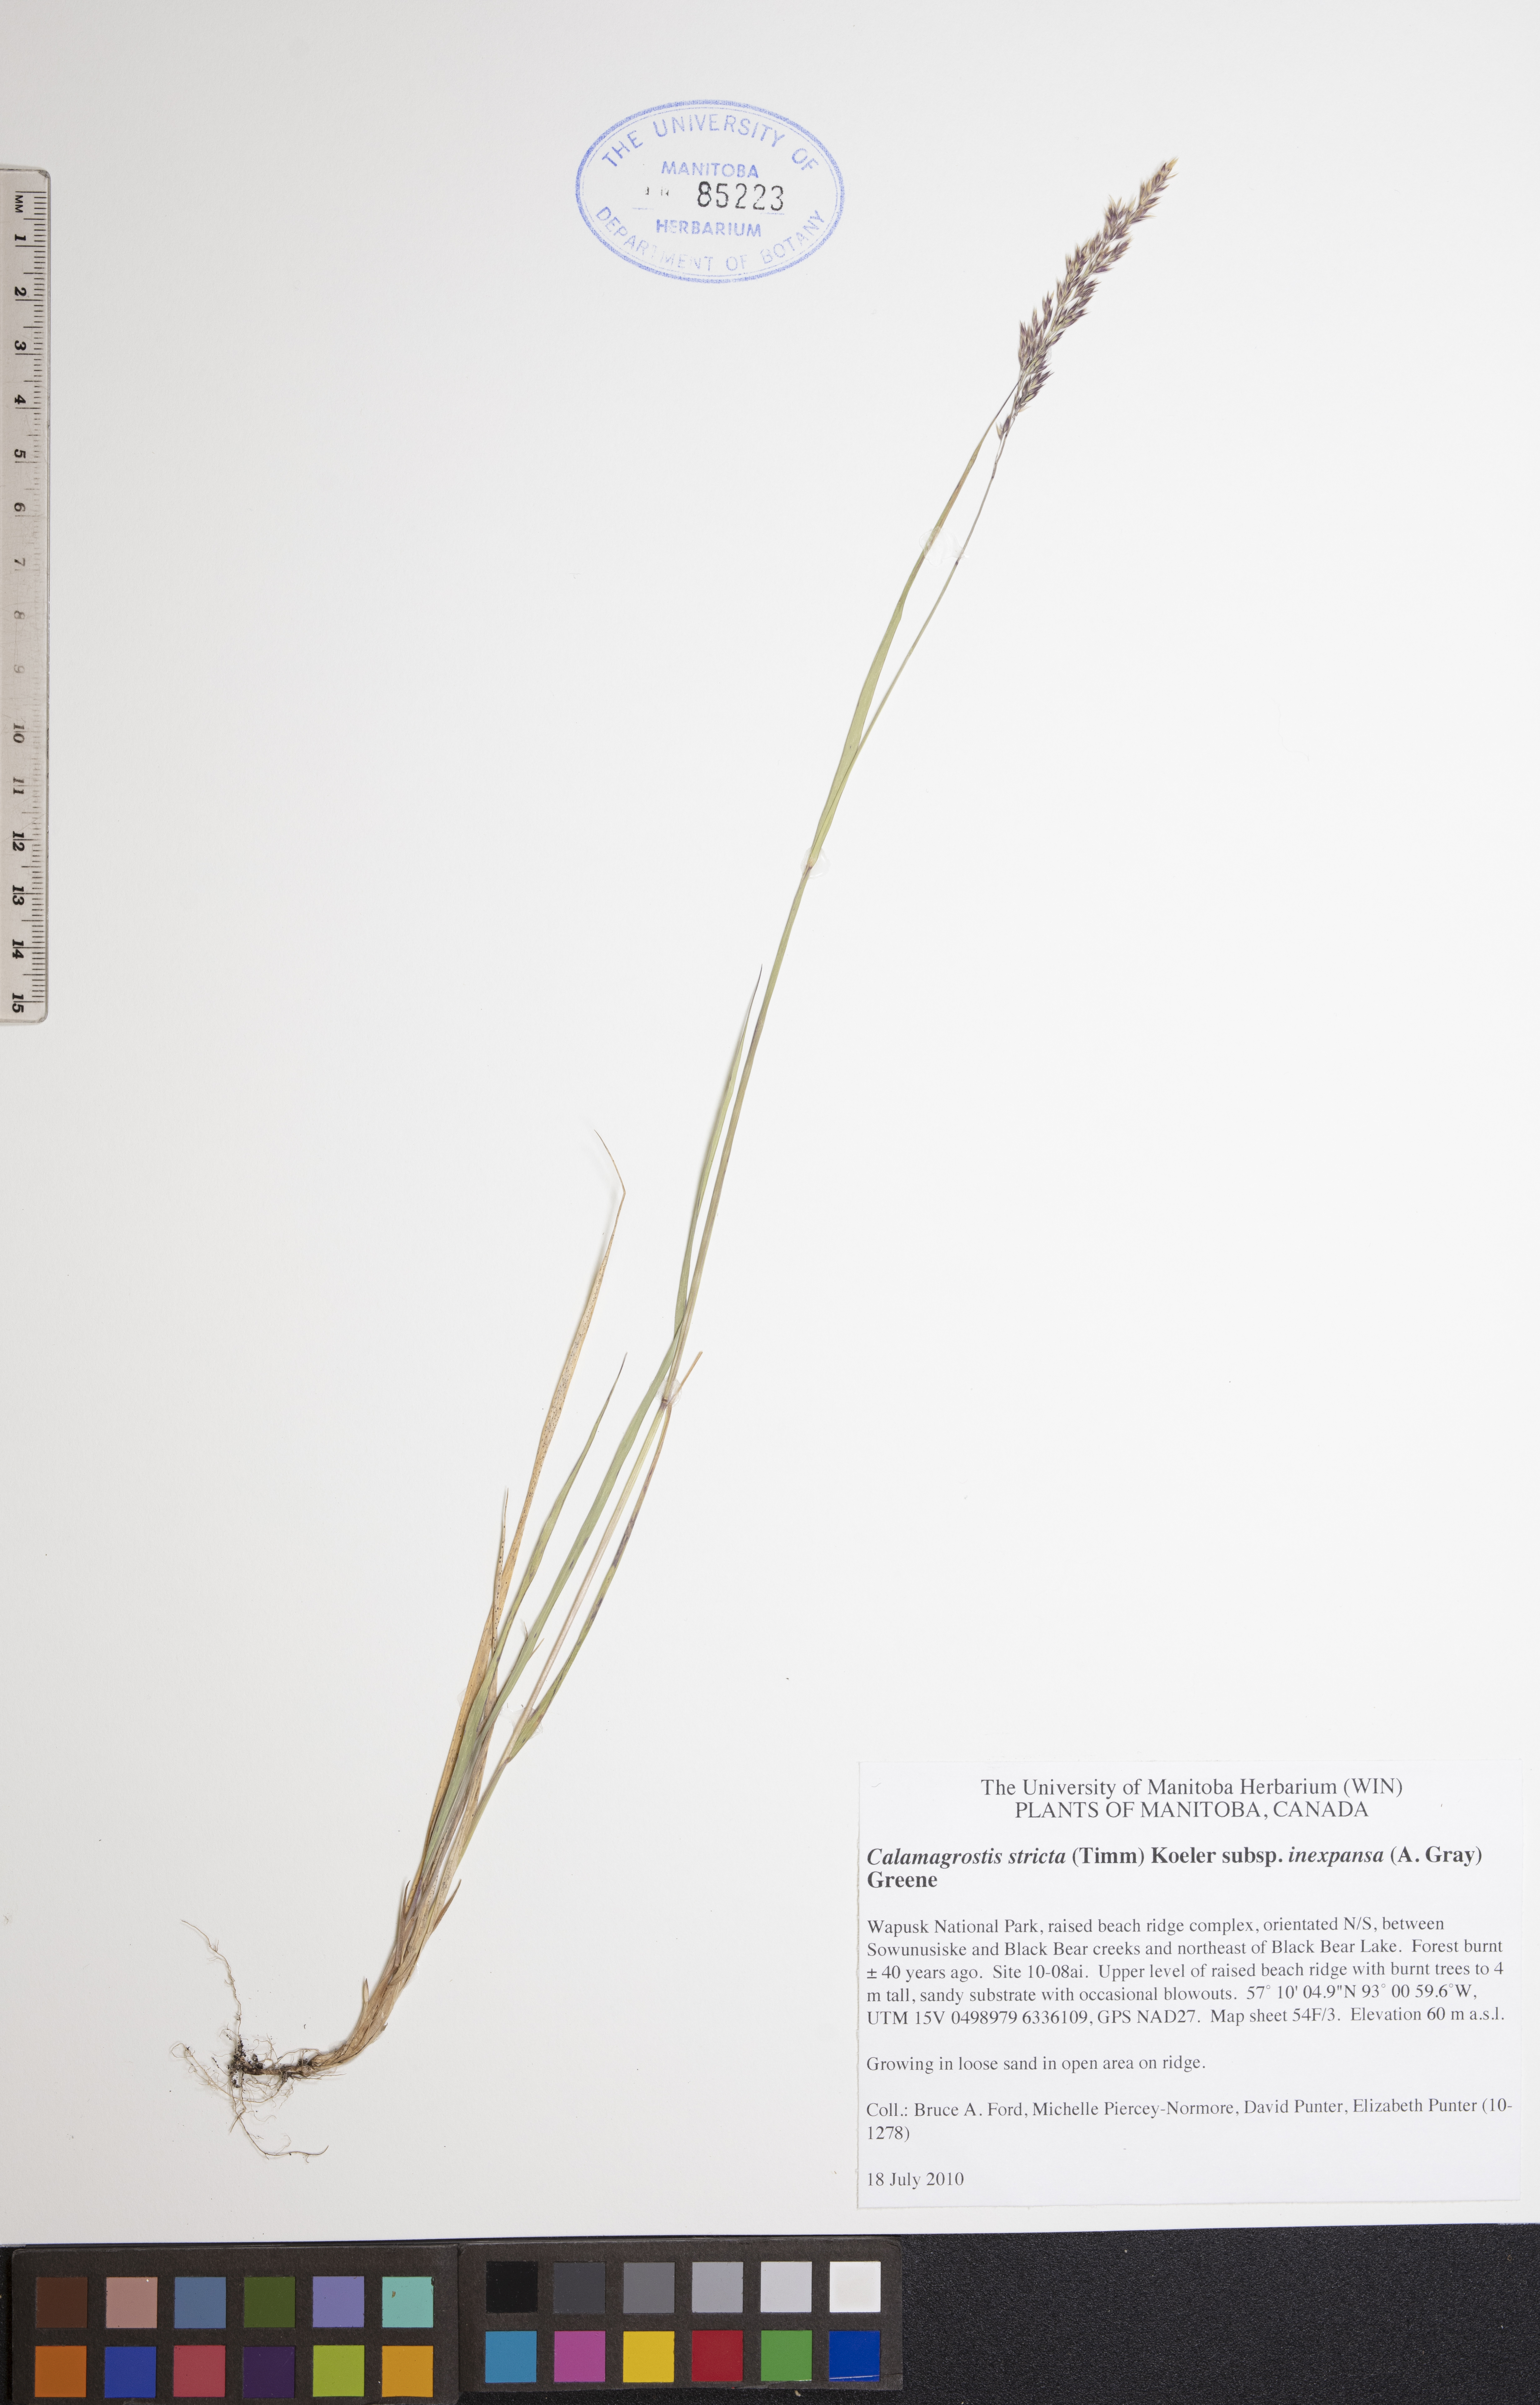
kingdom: Plantae
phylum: Tracheophyta
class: Liliopsida
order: Poales
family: Poaceae
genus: Calamagrostis
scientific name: Calamagrostis inexpansa
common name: Northern reedgrass
